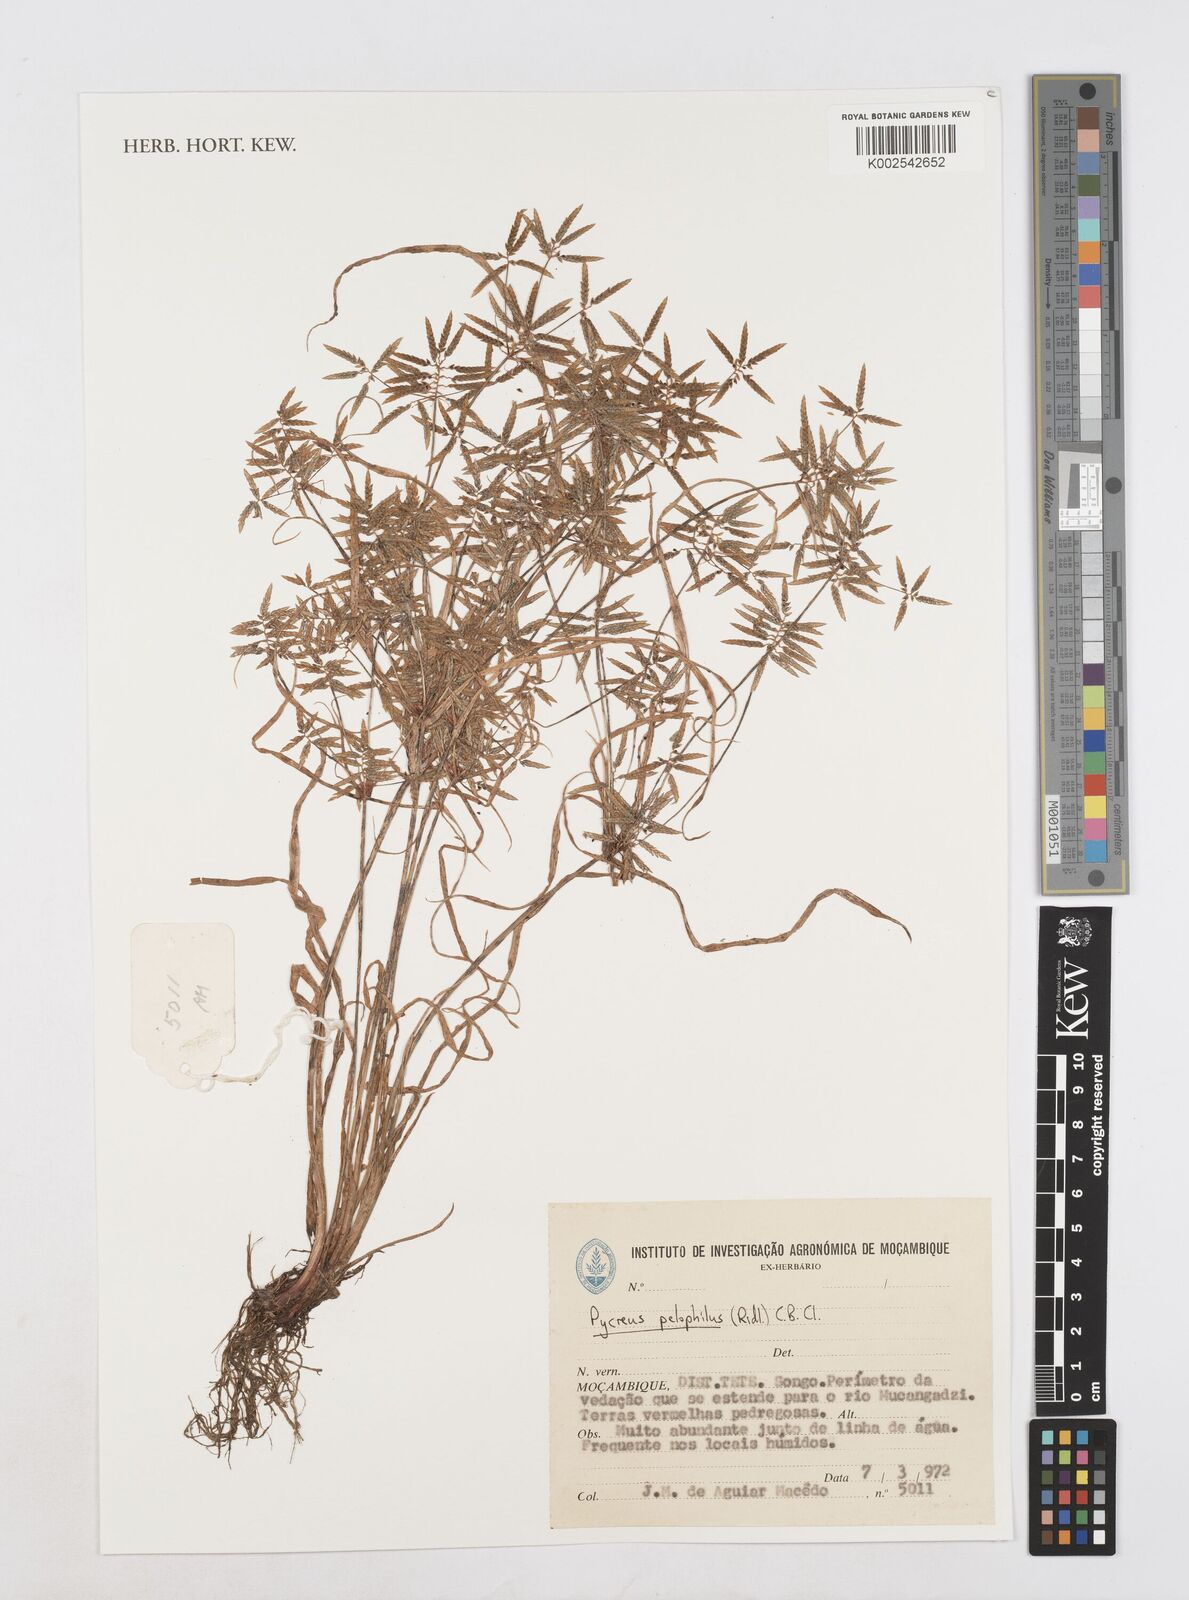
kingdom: Plantae
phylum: Tracheophyta
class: Liliopsida
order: Poales
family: Cyperaceae
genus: Cyperus
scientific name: Cyperus pelophilus
